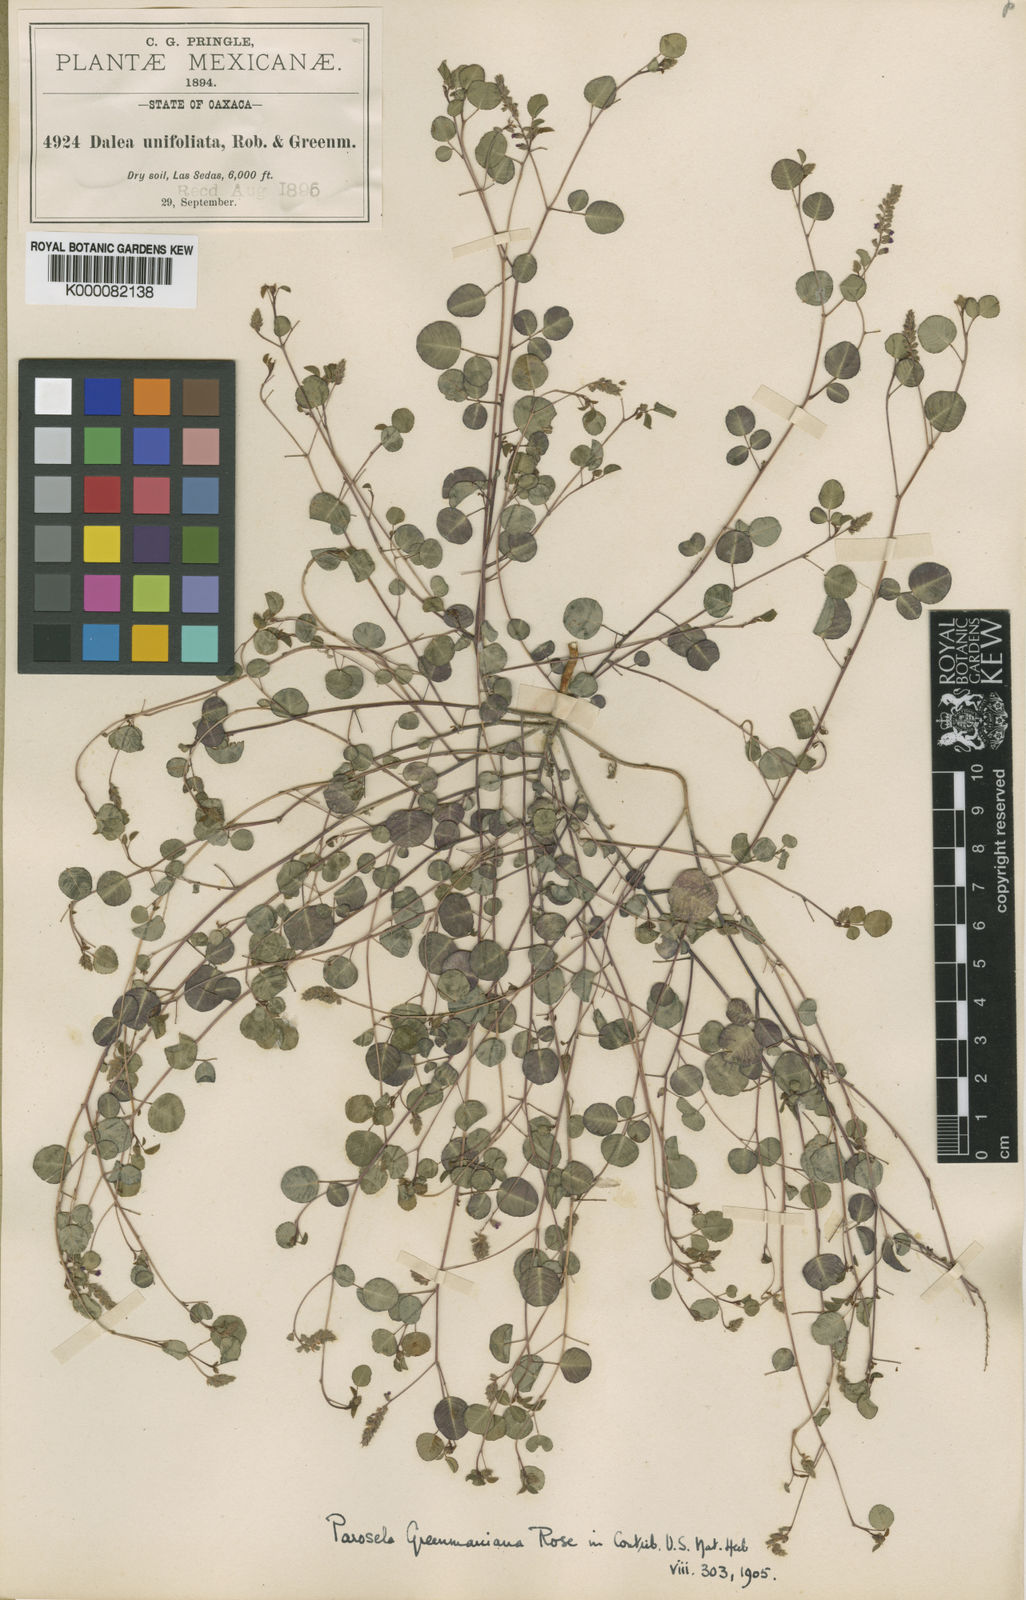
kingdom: Plantae
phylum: Tracheophyta
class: Magnoliopsida
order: Fabales
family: Fabaceae
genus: Marina
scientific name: Marina greenmaniana
